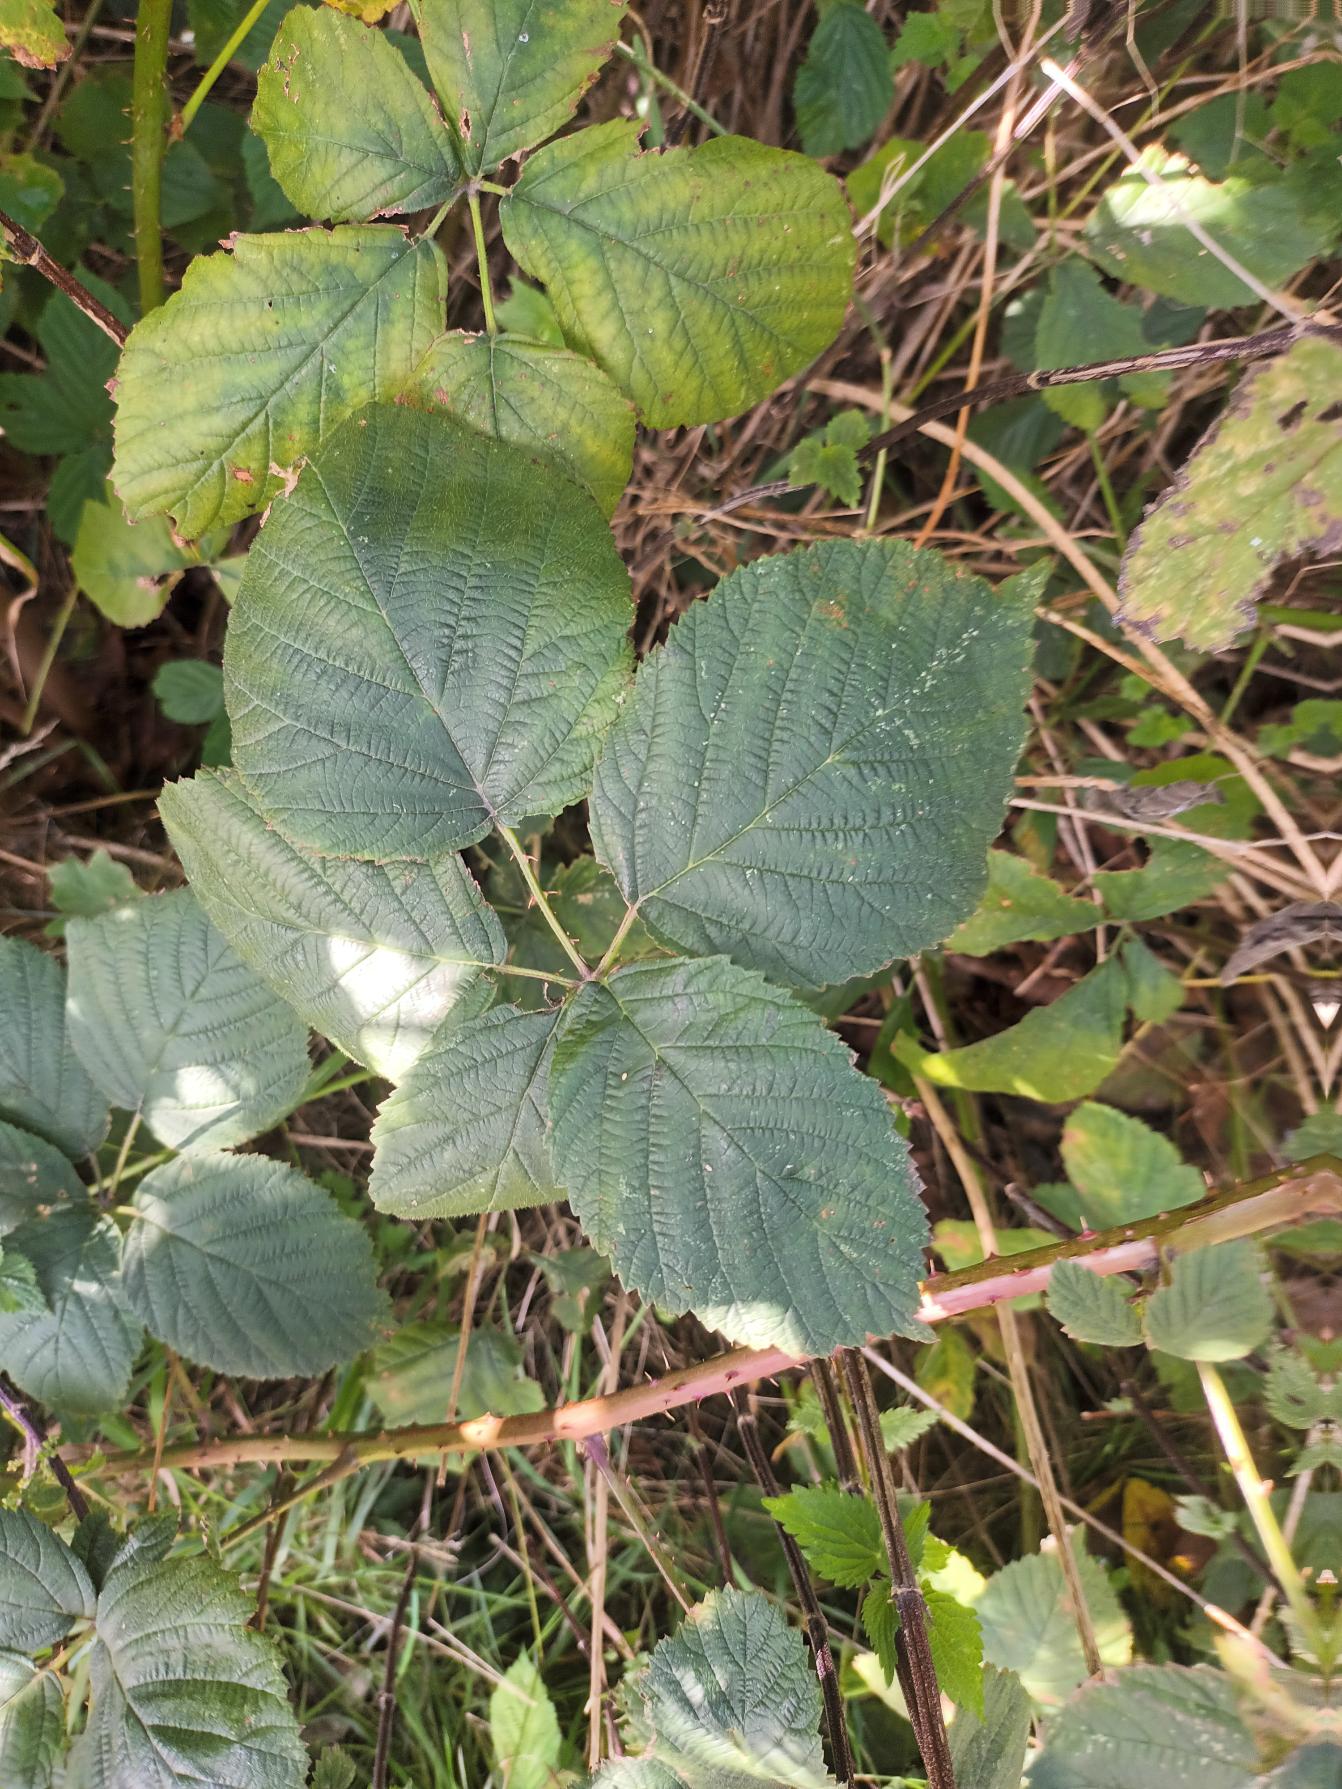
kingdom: Plantae
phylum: Tracheophyta
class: Magnoliopsida
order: Rosales
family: Rosaceae
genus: Rubus
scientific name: Rubus fasciculatus
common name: Gråbladet hasselbrombær
